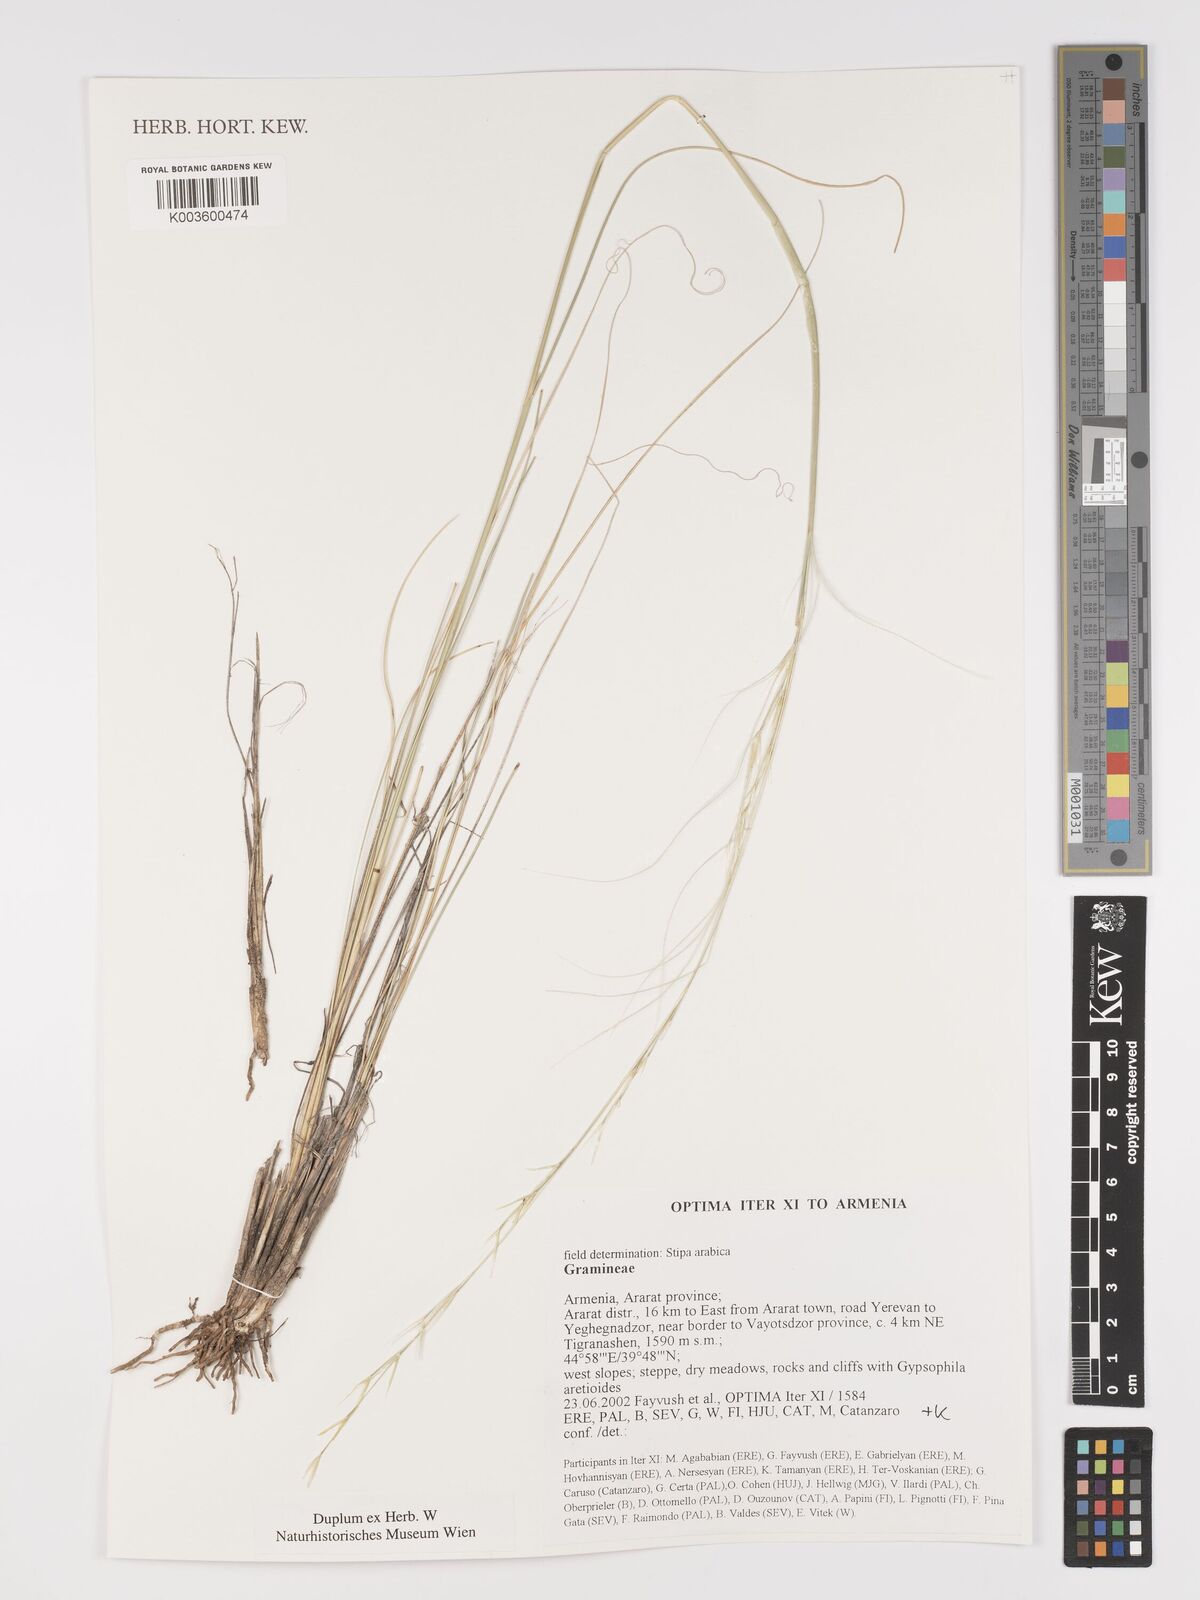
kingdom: Plantae
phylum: Tracheophyta
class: Liliopsida
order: Poales
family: Poaceae
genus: Stipa
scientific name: Stipa arabica
